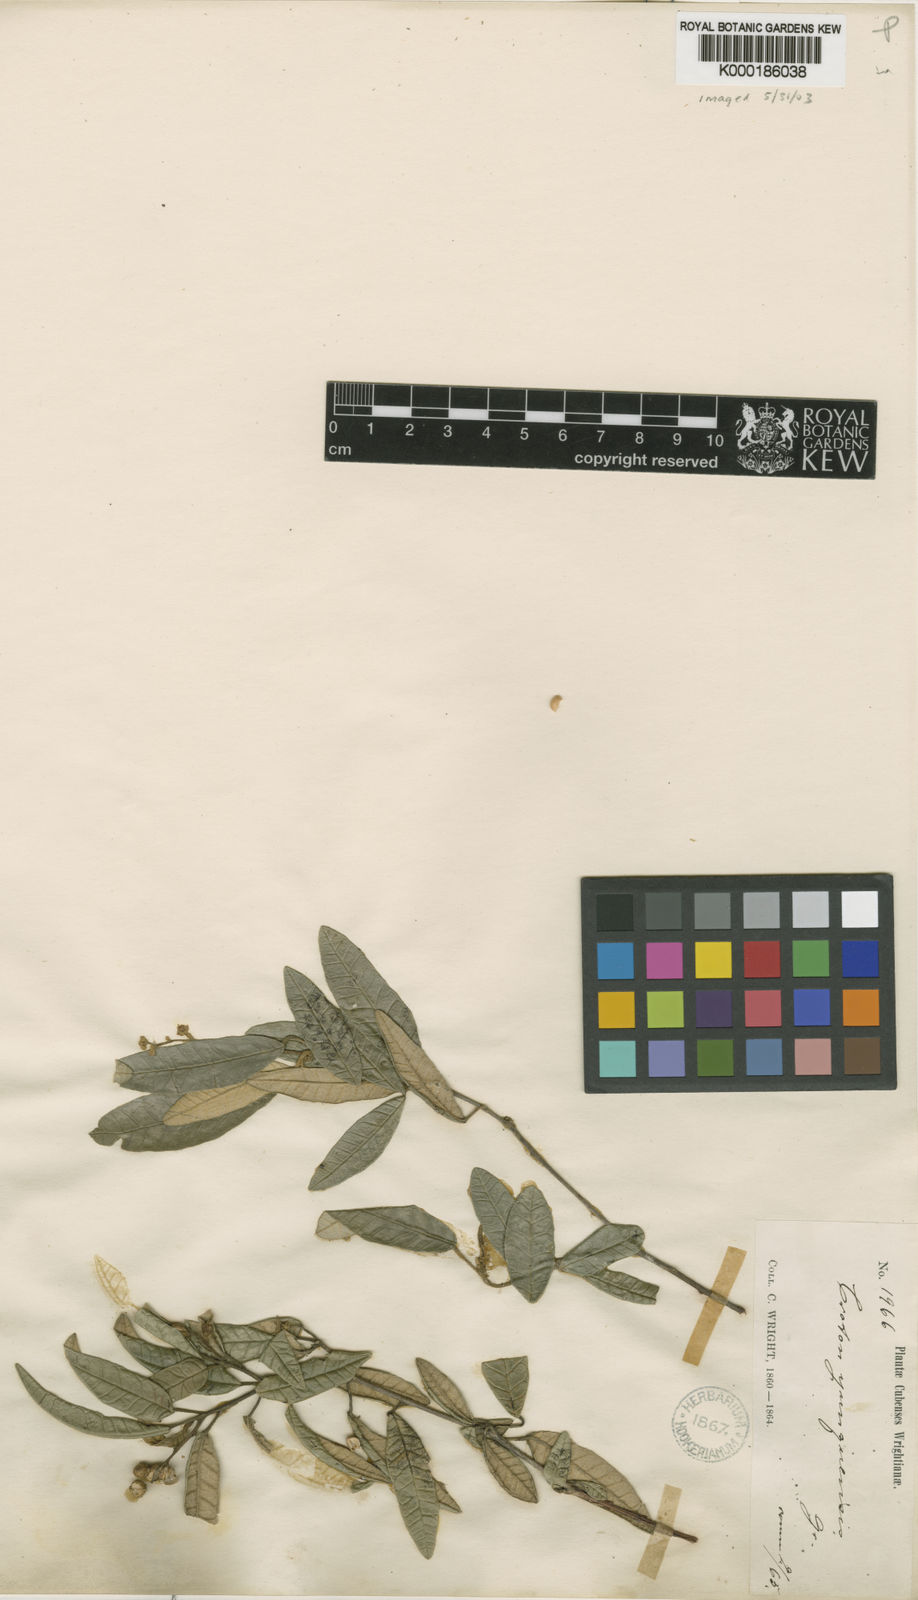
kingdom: Plantae
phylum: Tracheophyta
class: Magnoliopsida
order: Malpighiales
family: Euphorbiaceae
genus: Croton
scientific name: Croton viminalis
